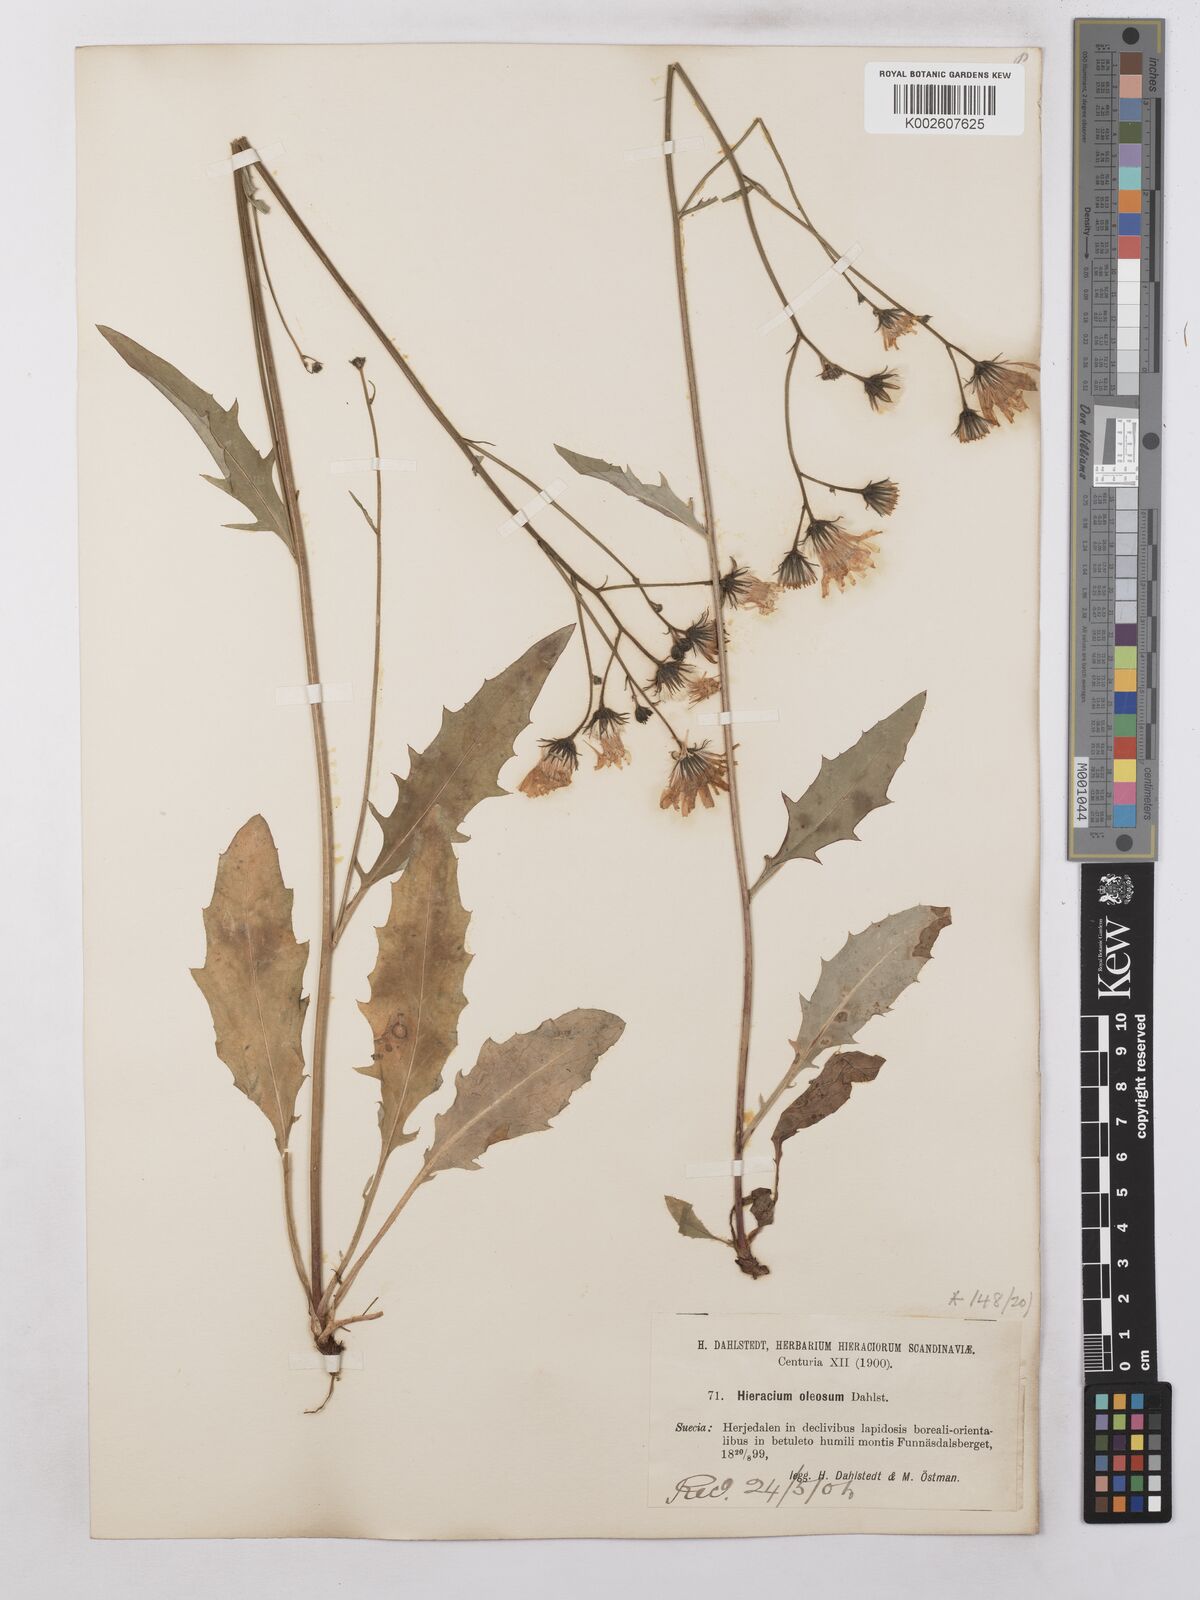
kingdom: Plantae
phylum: Tracheophyta
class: Magnoliopsida
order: Asterales
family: Asteraceae
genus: Hieracium
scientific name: Hieracium subramosum
